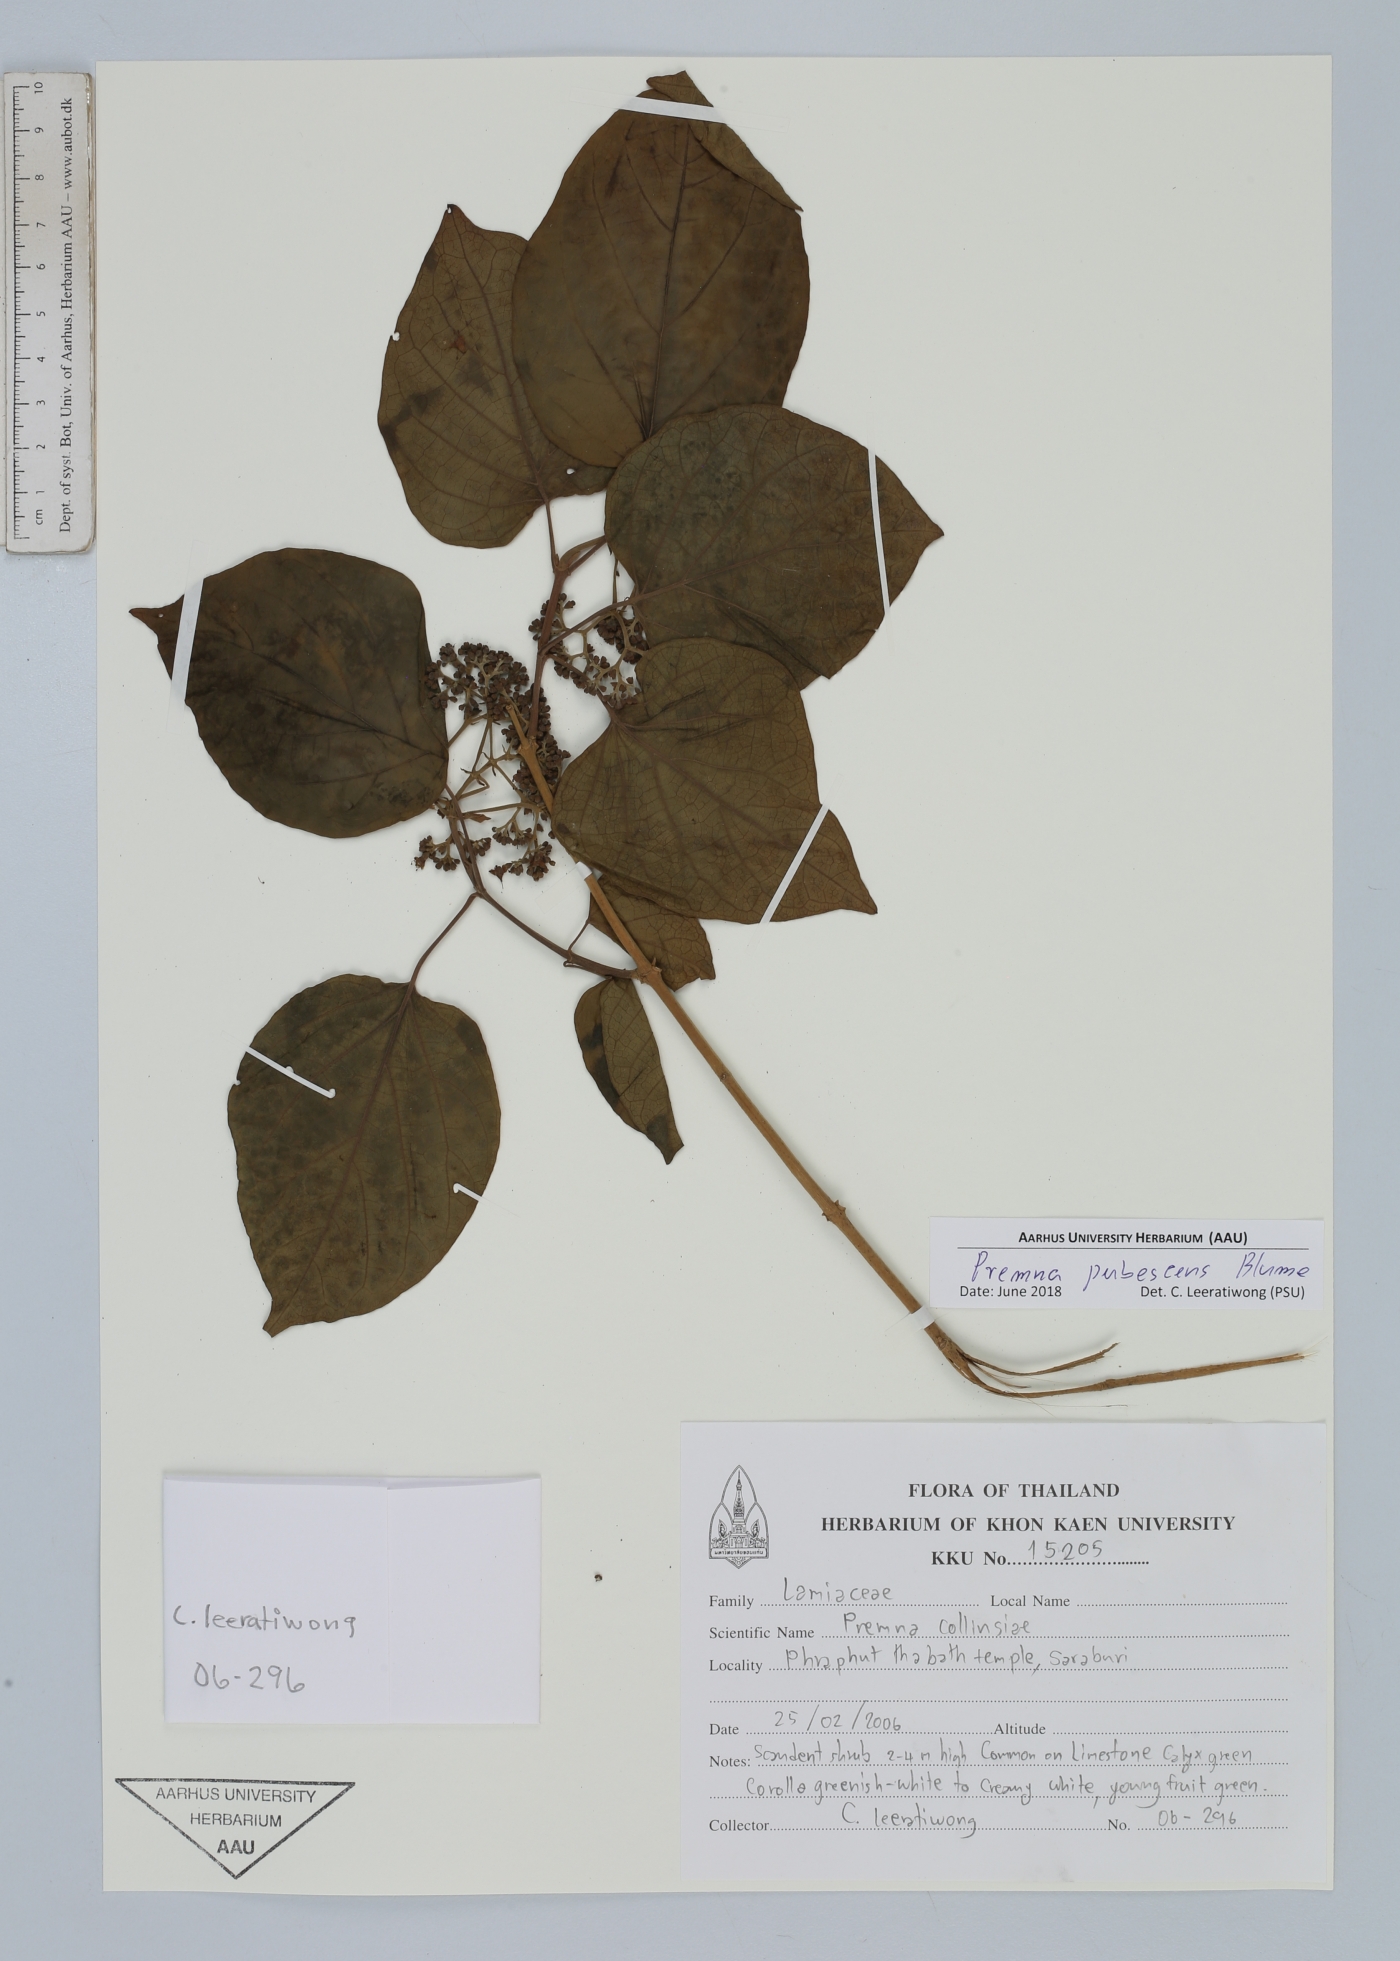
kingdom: Plantae
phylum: Tracheophyta
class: Magnoliopsida
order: Lamiales
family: Lamiaceae
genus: Premna
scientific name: Premna pubescens
